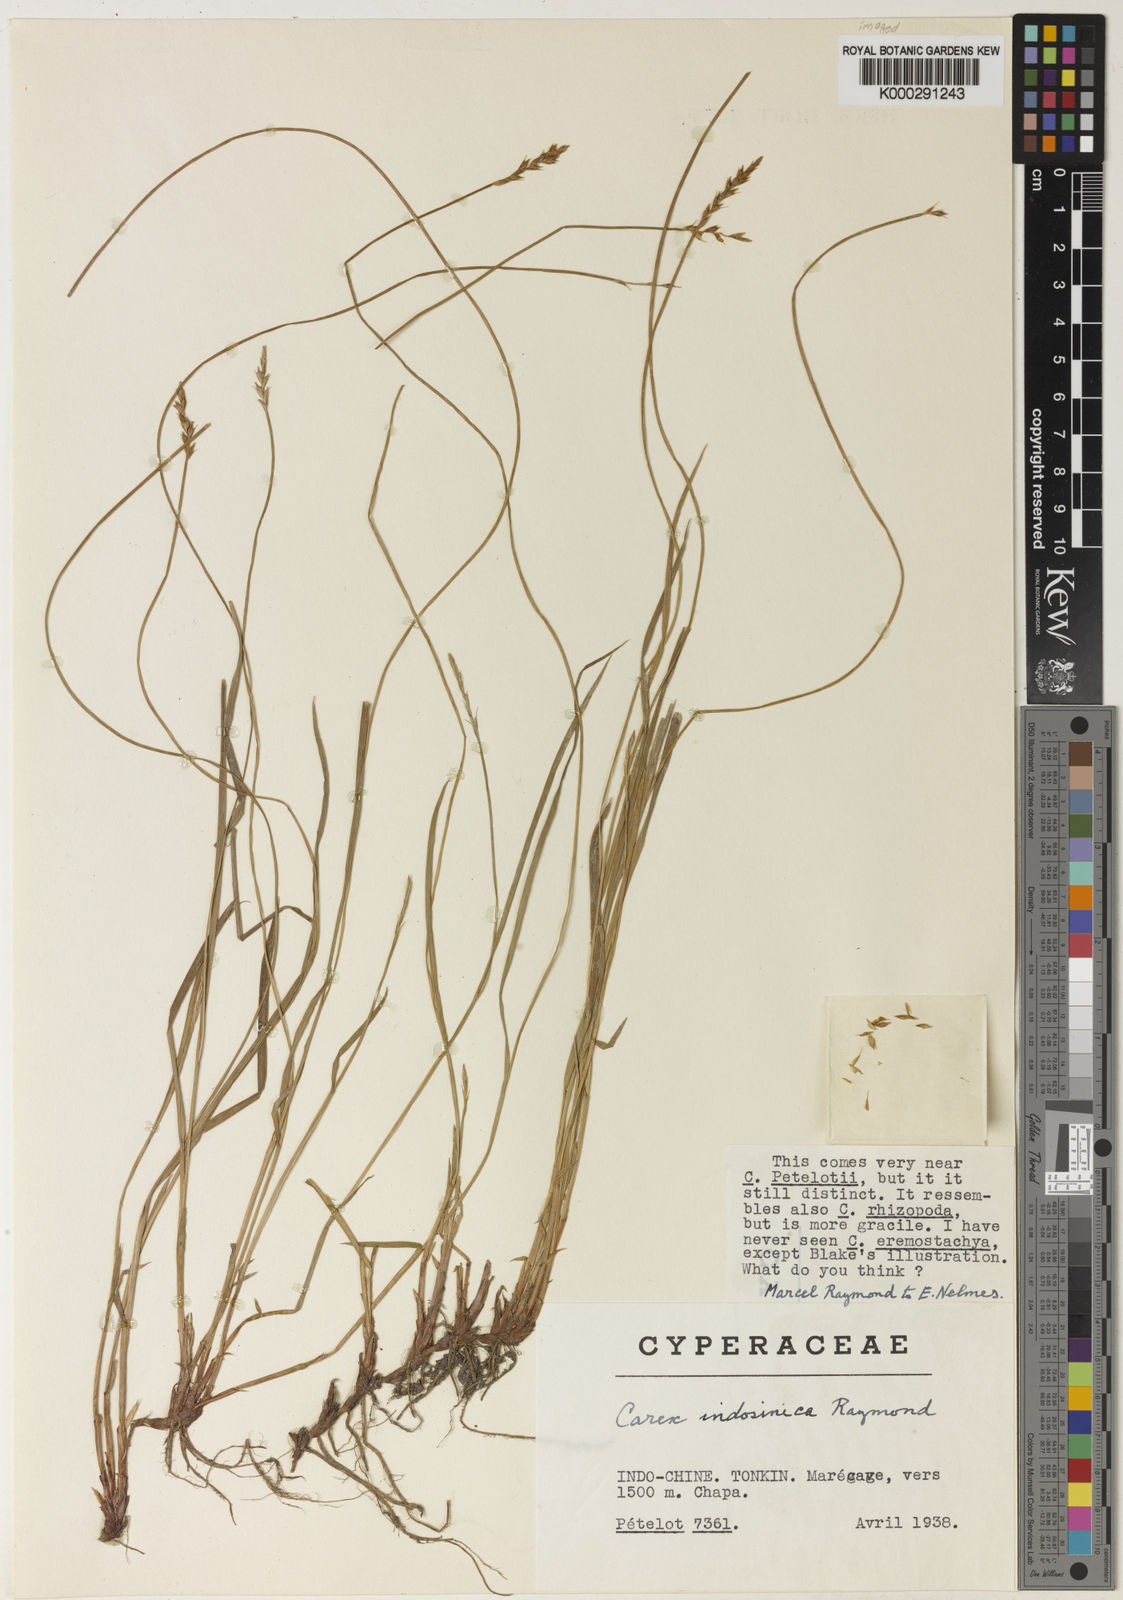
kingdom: Plantae
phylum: Tracheophyta
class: Liliopsida
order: Poales
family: Cyperaceae
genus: Carex
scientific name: Carex indosinica
